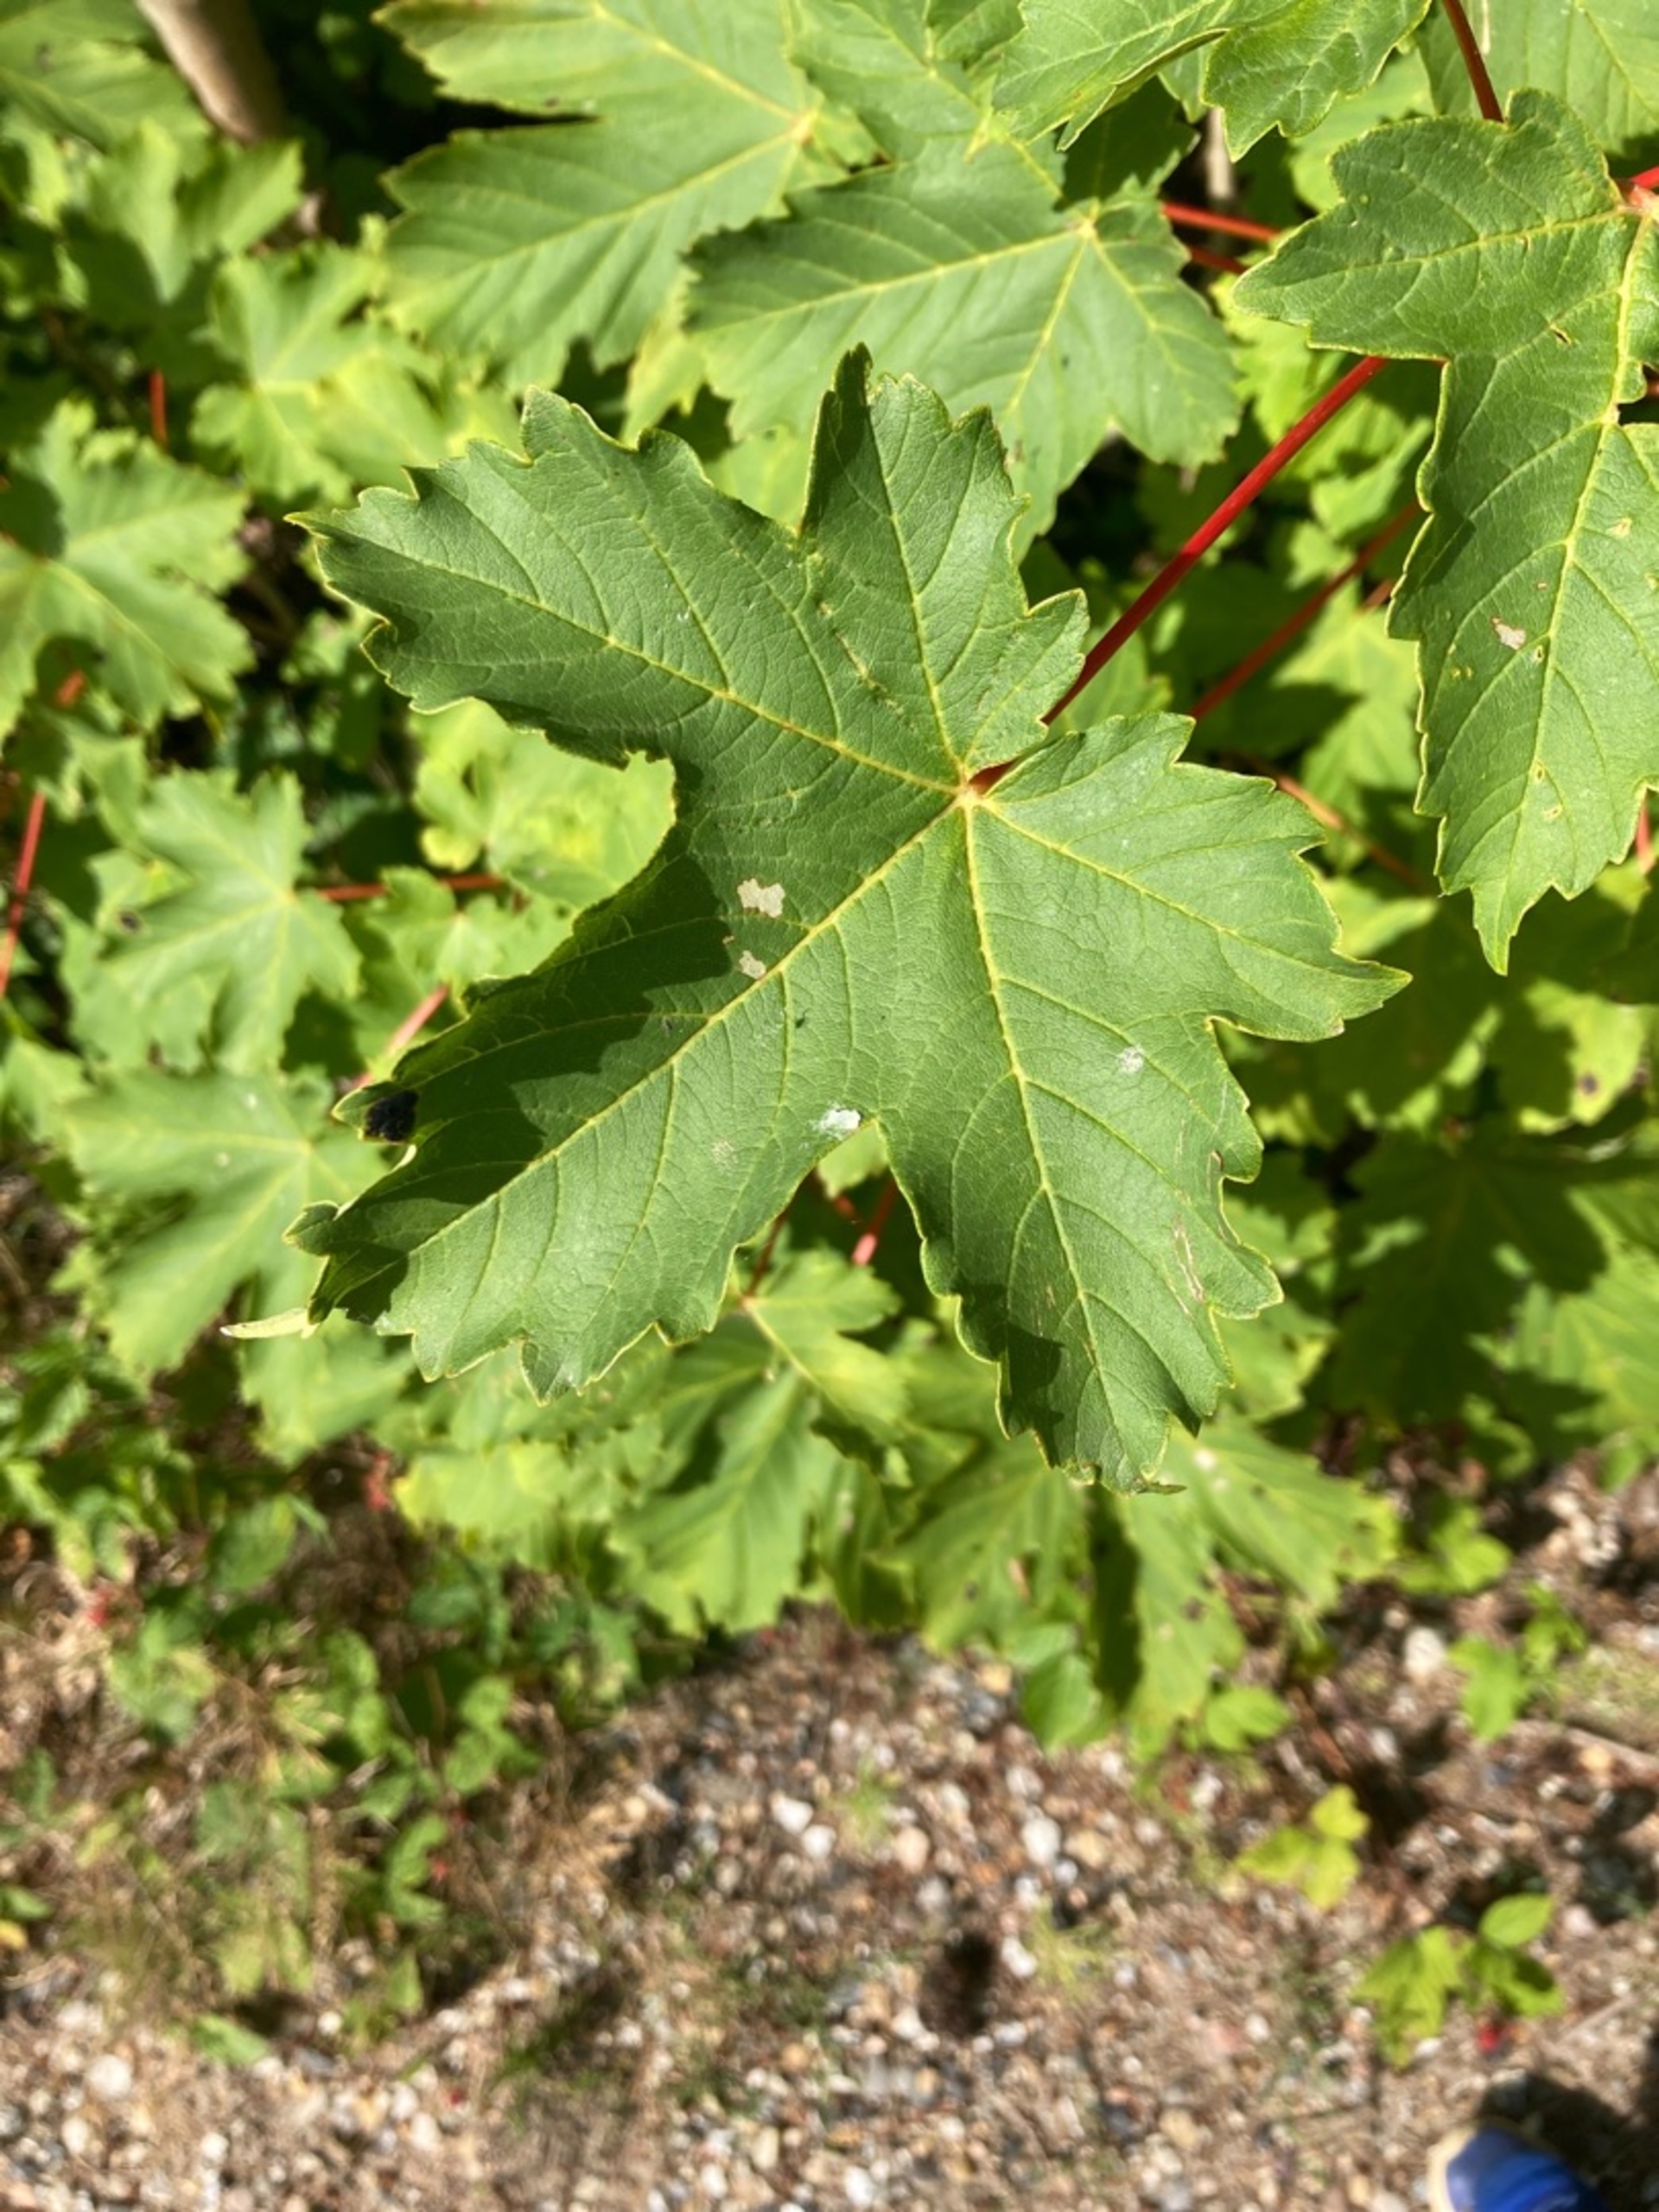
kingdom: Plantae
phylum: Tracheophyta
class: Magnoliopsida
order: Sapindales
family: Sapindaceae
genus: Acer
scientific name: Acer pseudoplatanus
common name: Ahorn
